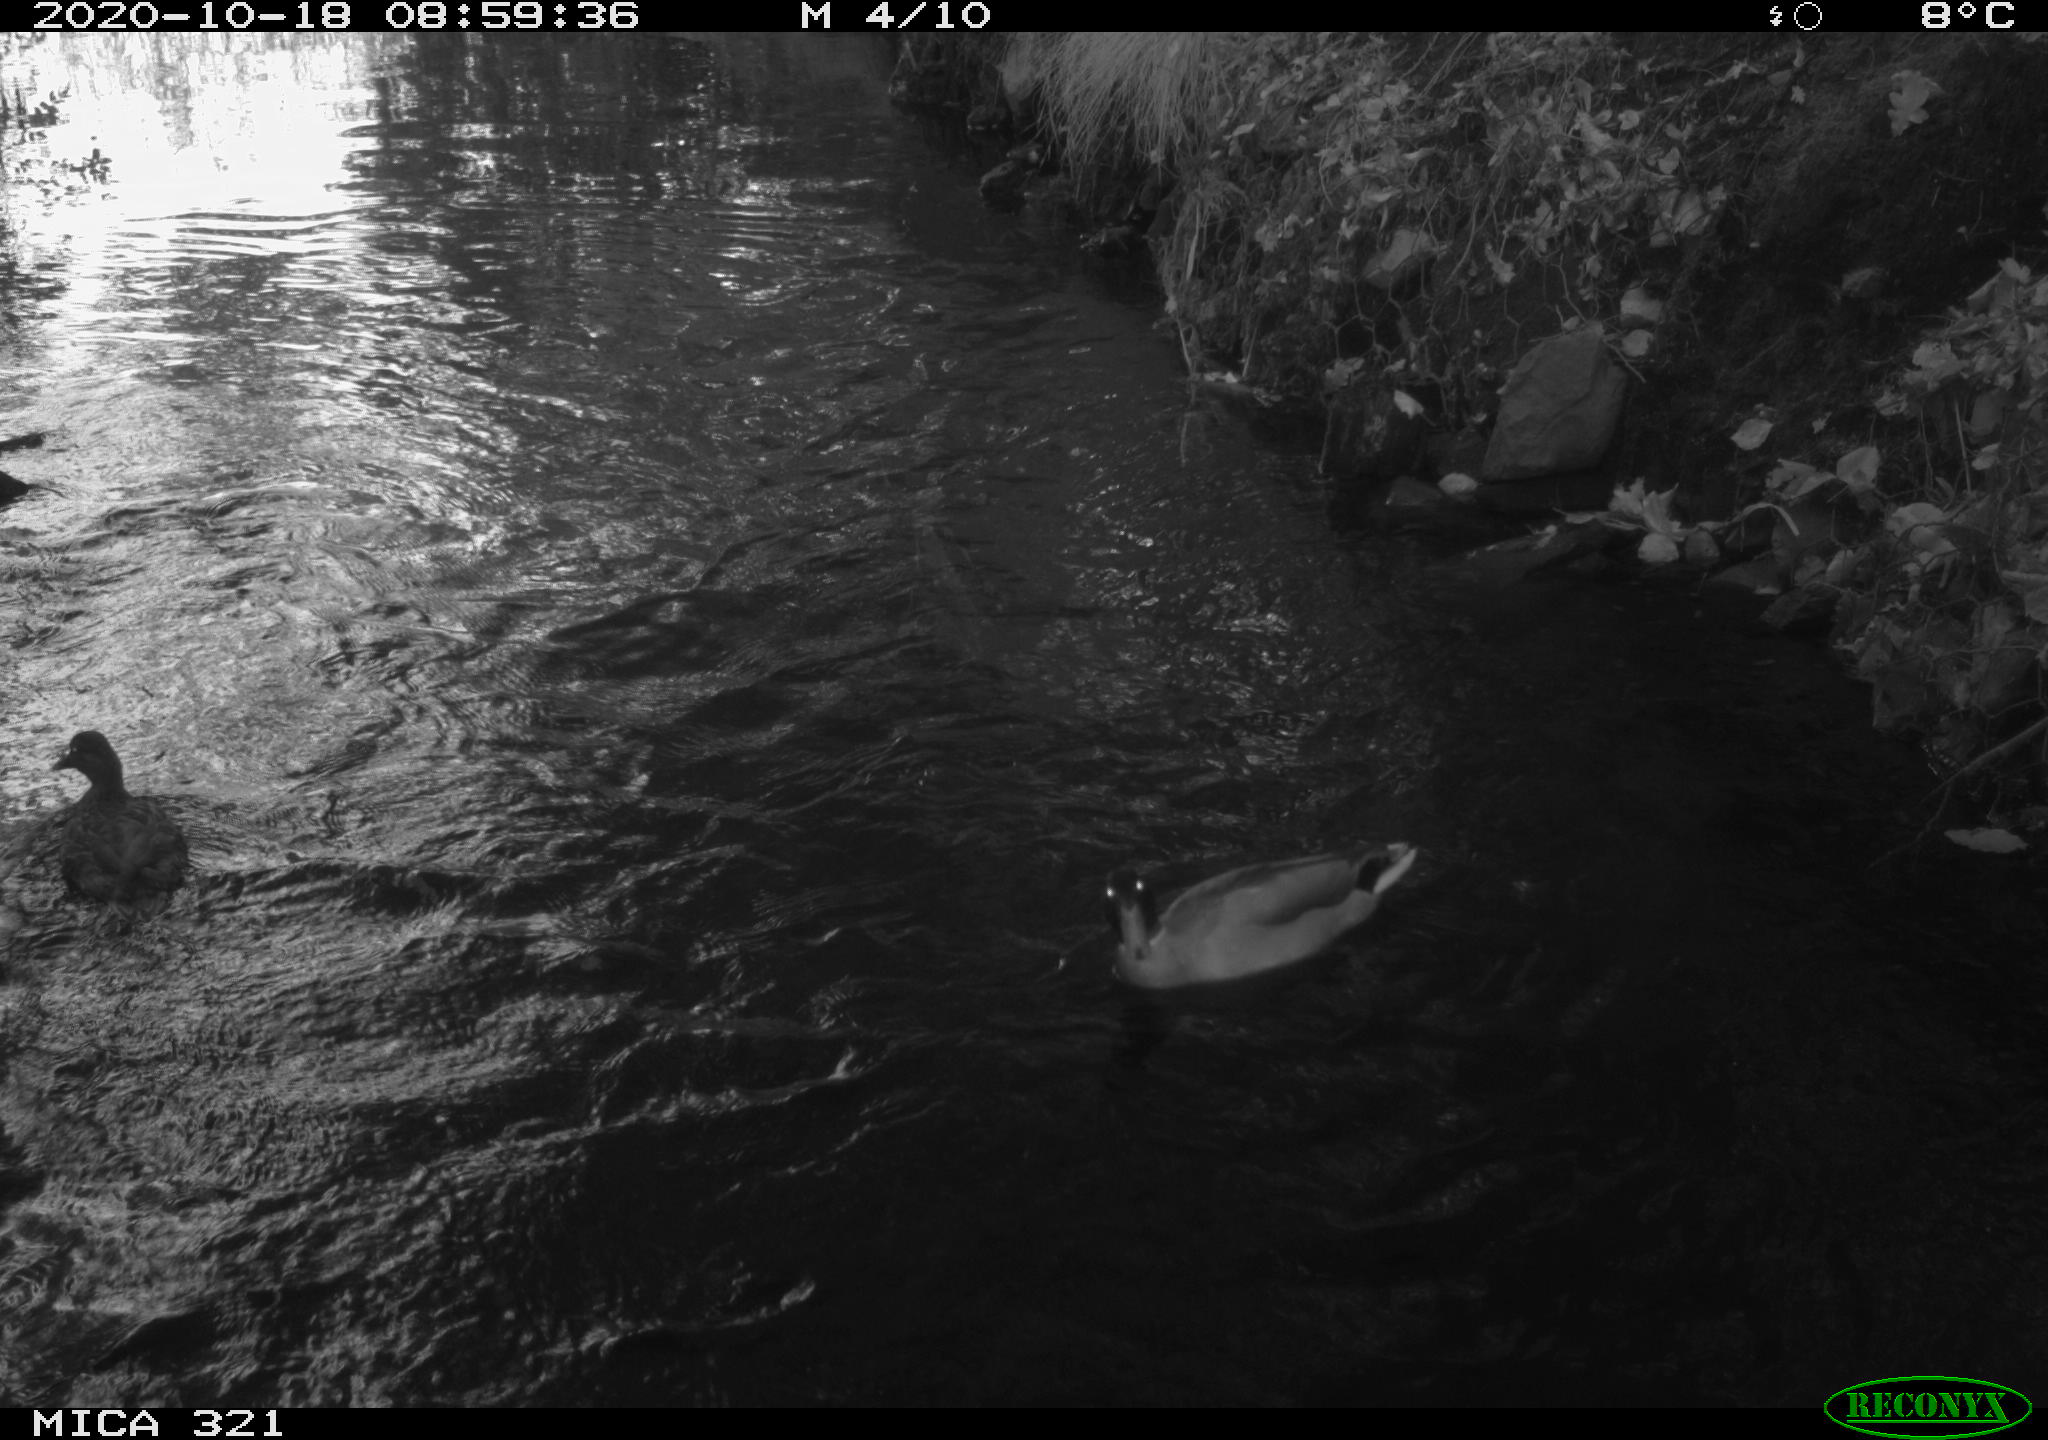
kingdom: Animalia
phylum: Chordata
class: Aves
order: Anseriformes
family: Anatidae
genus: Anas
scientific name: Anas platyrhynchos
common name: Mallard
